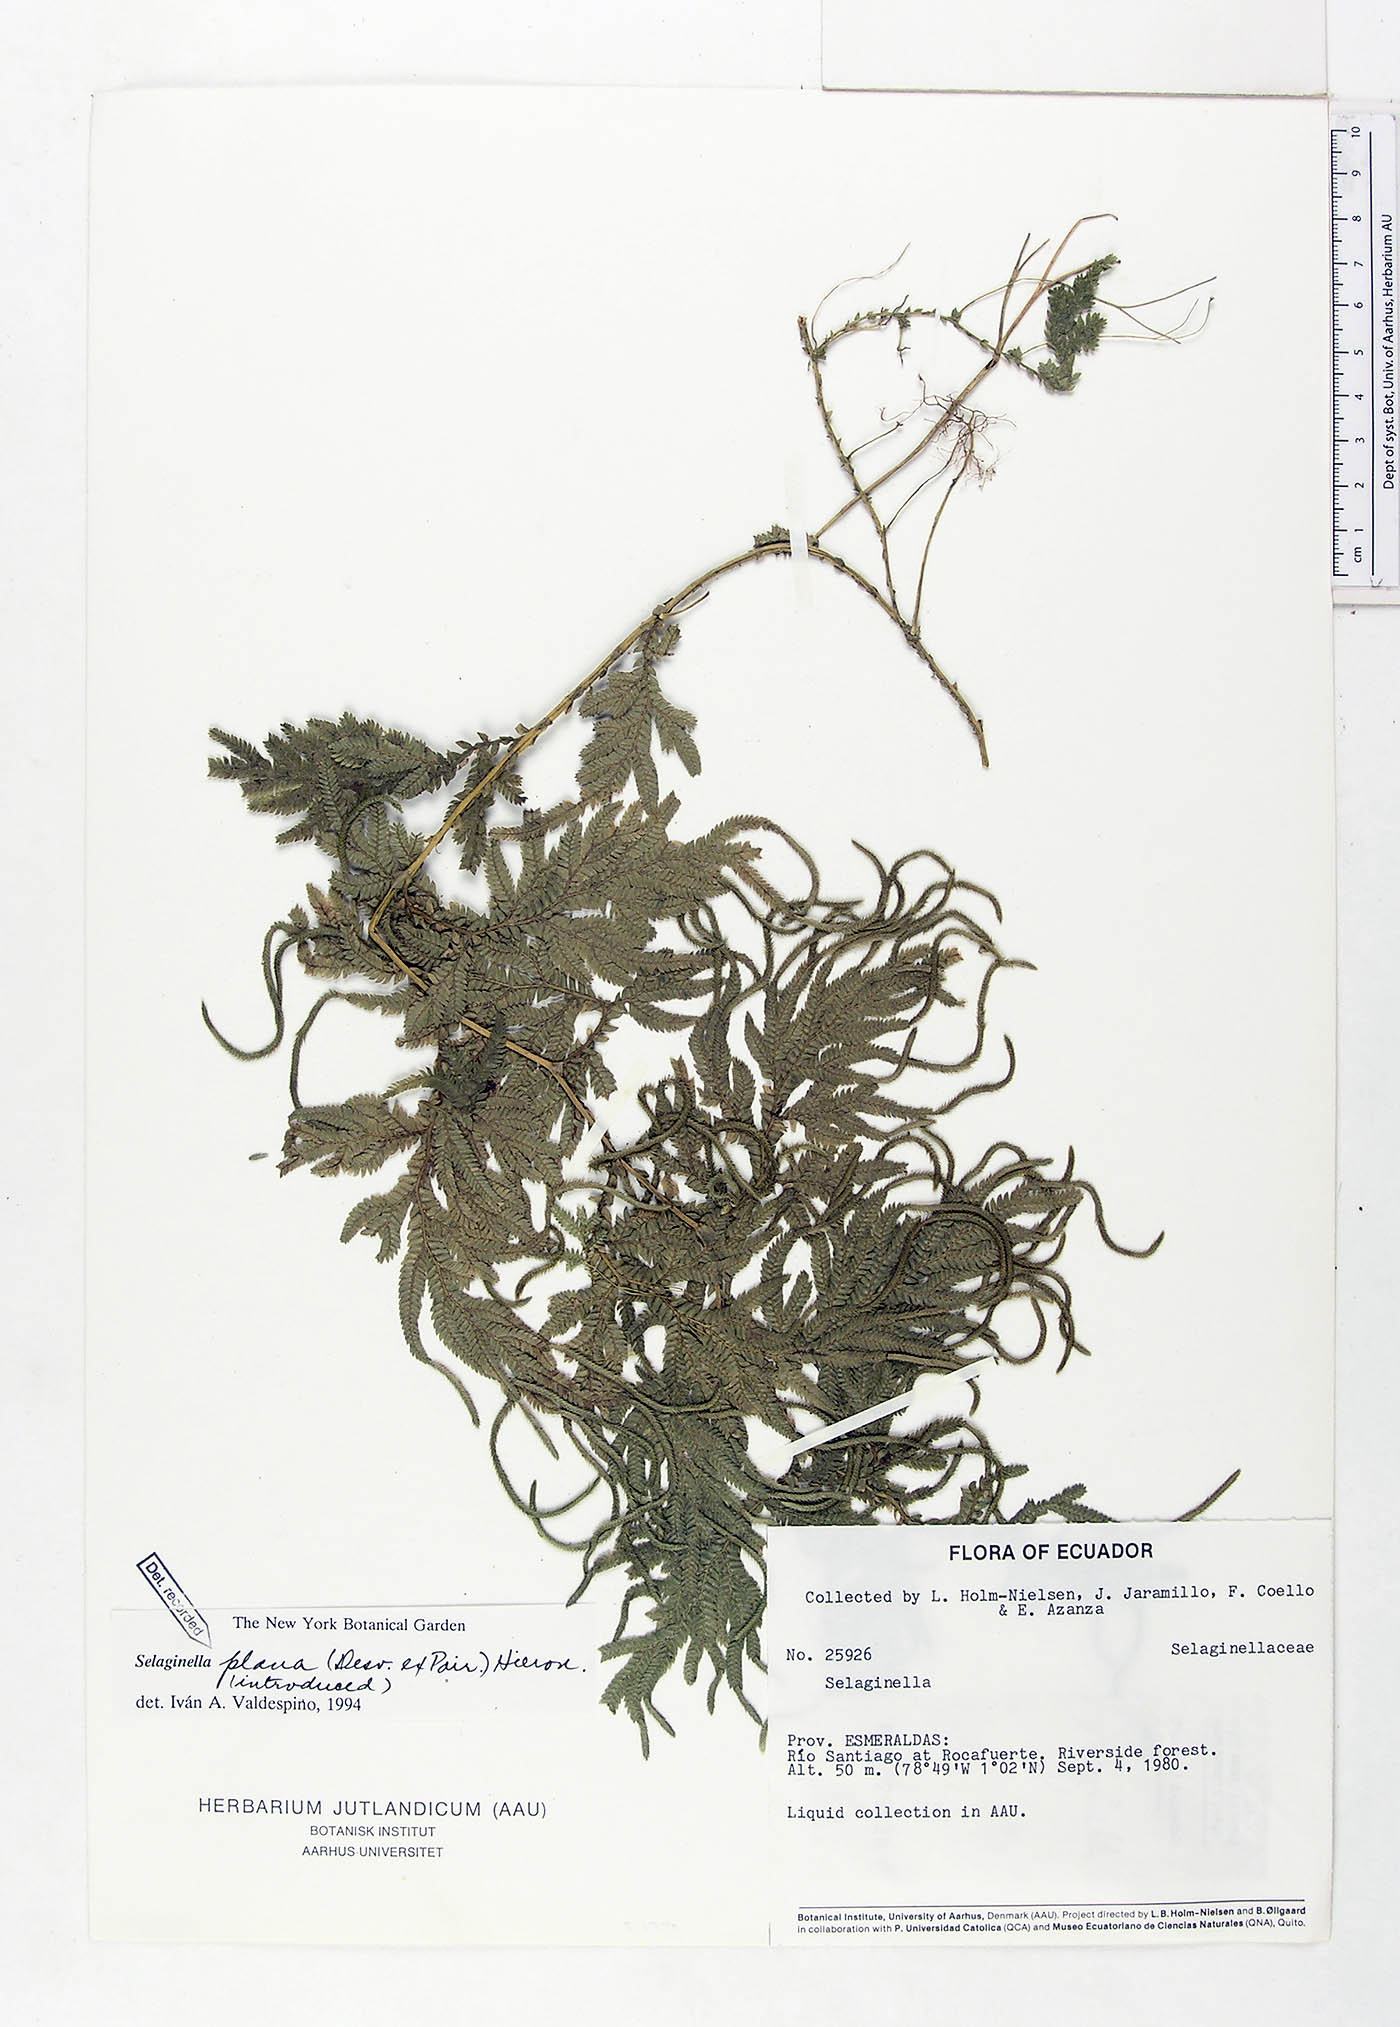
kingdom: Plantae
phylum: Tracheophyta
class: Lycopodiopsida
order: Selaginellales
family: Selaginellaceae
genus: Selaginella
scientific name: Selaginella plana
